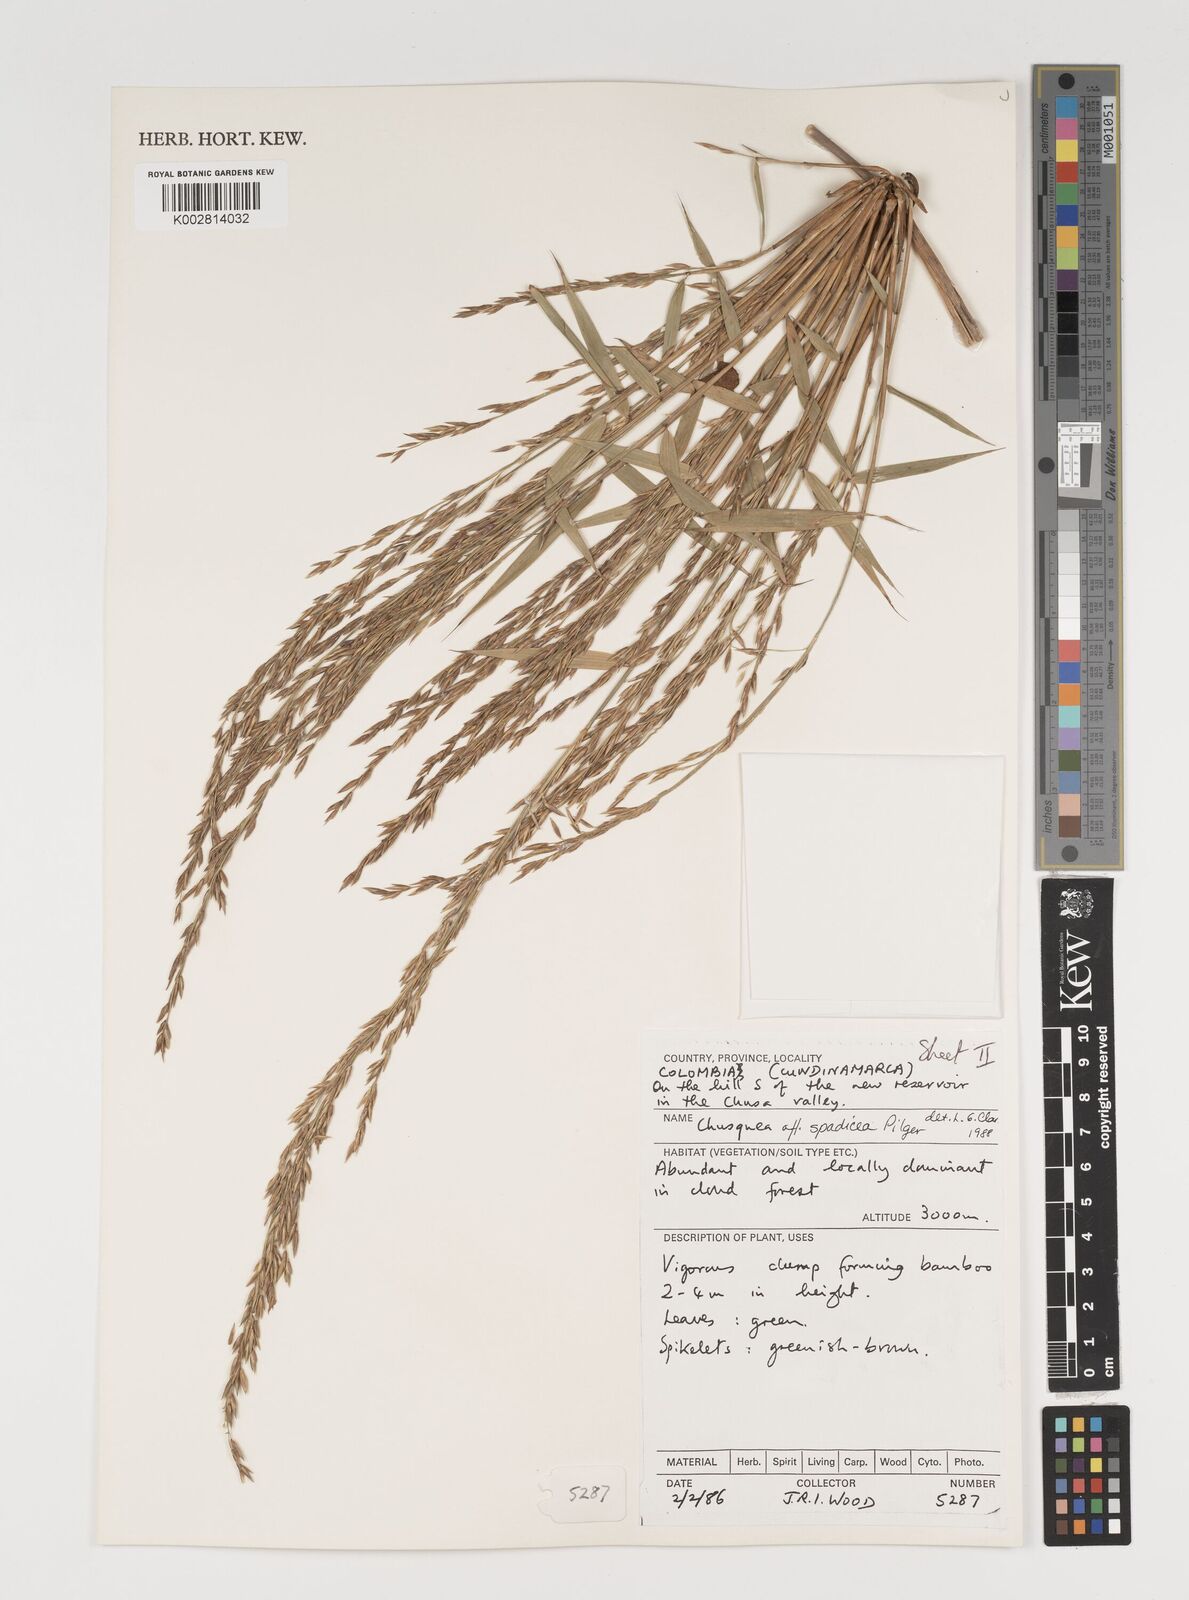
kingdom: Plantae
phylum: Tracheophyta
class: Liliopsida
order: Poales
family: Poaceae
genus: Chusquea
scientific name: Chusquea
